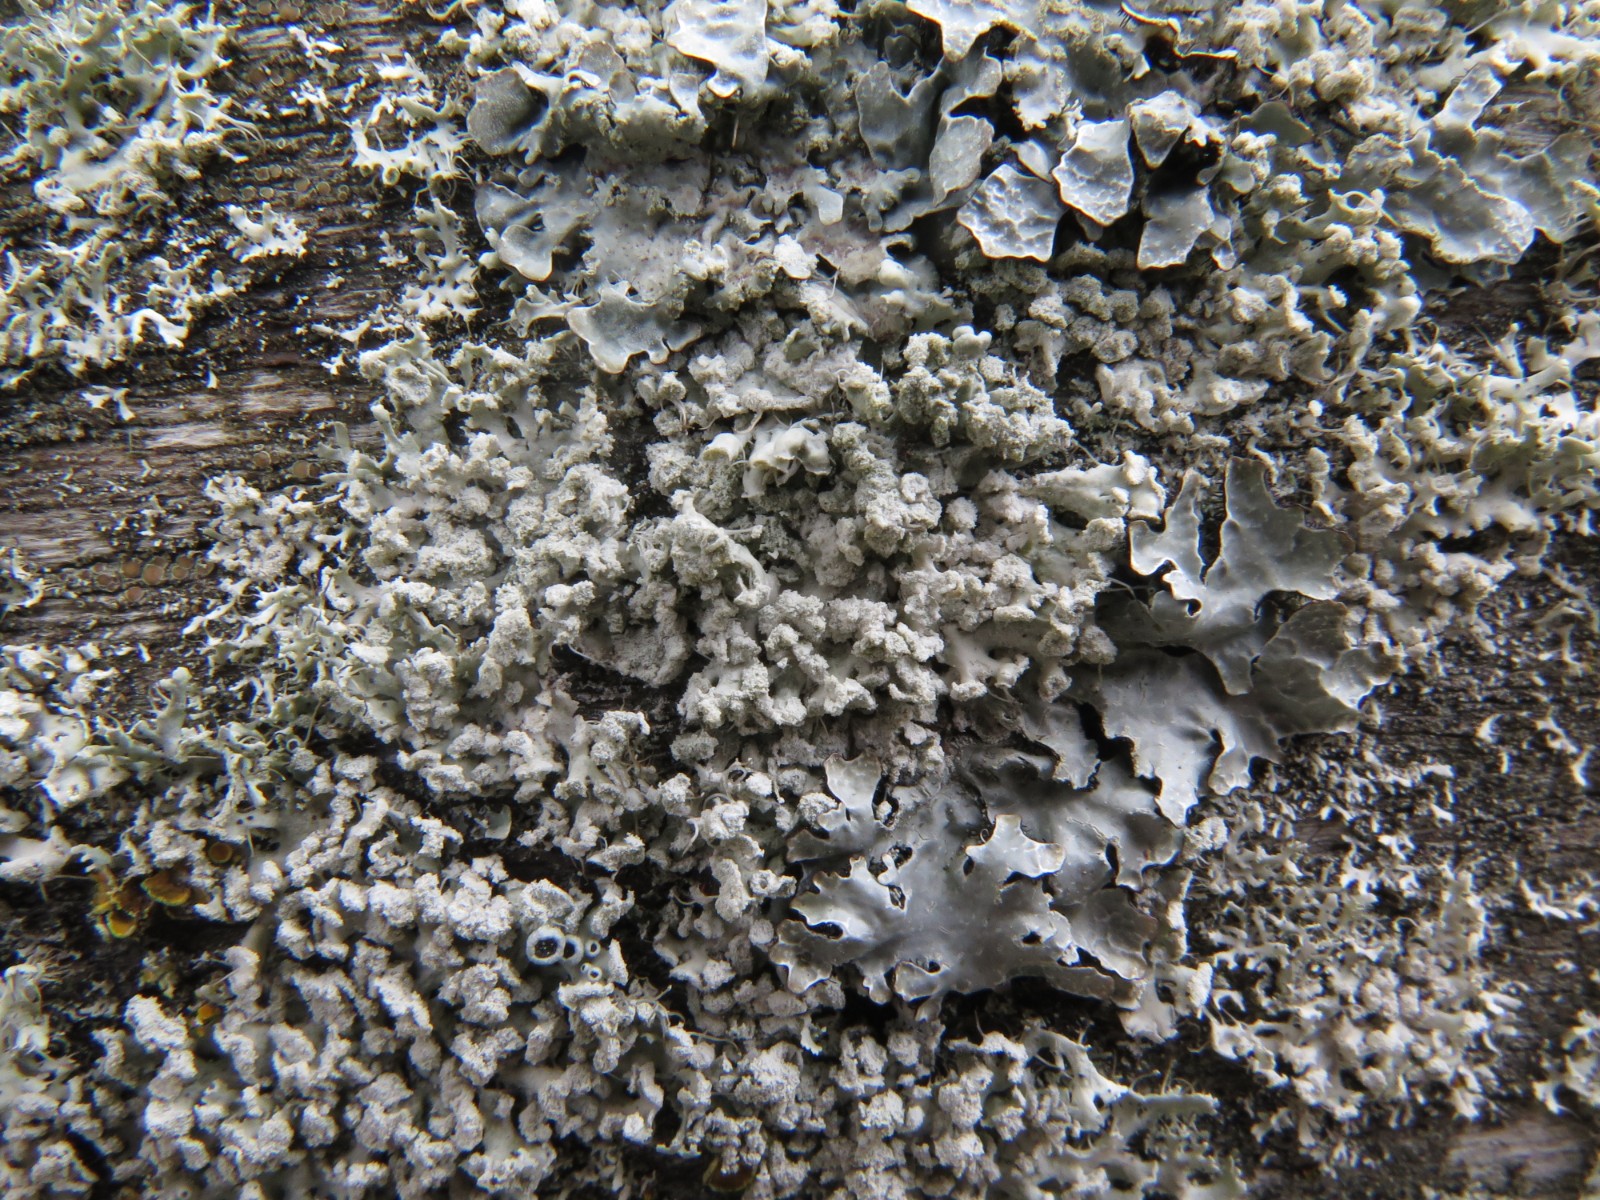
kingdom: Fungi
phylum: Ascomycota
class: Lecanoromycetes
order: Caliciales
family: Physciaceae
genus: Physcia
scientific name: Physcia tenella
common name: spæd rosetlav
